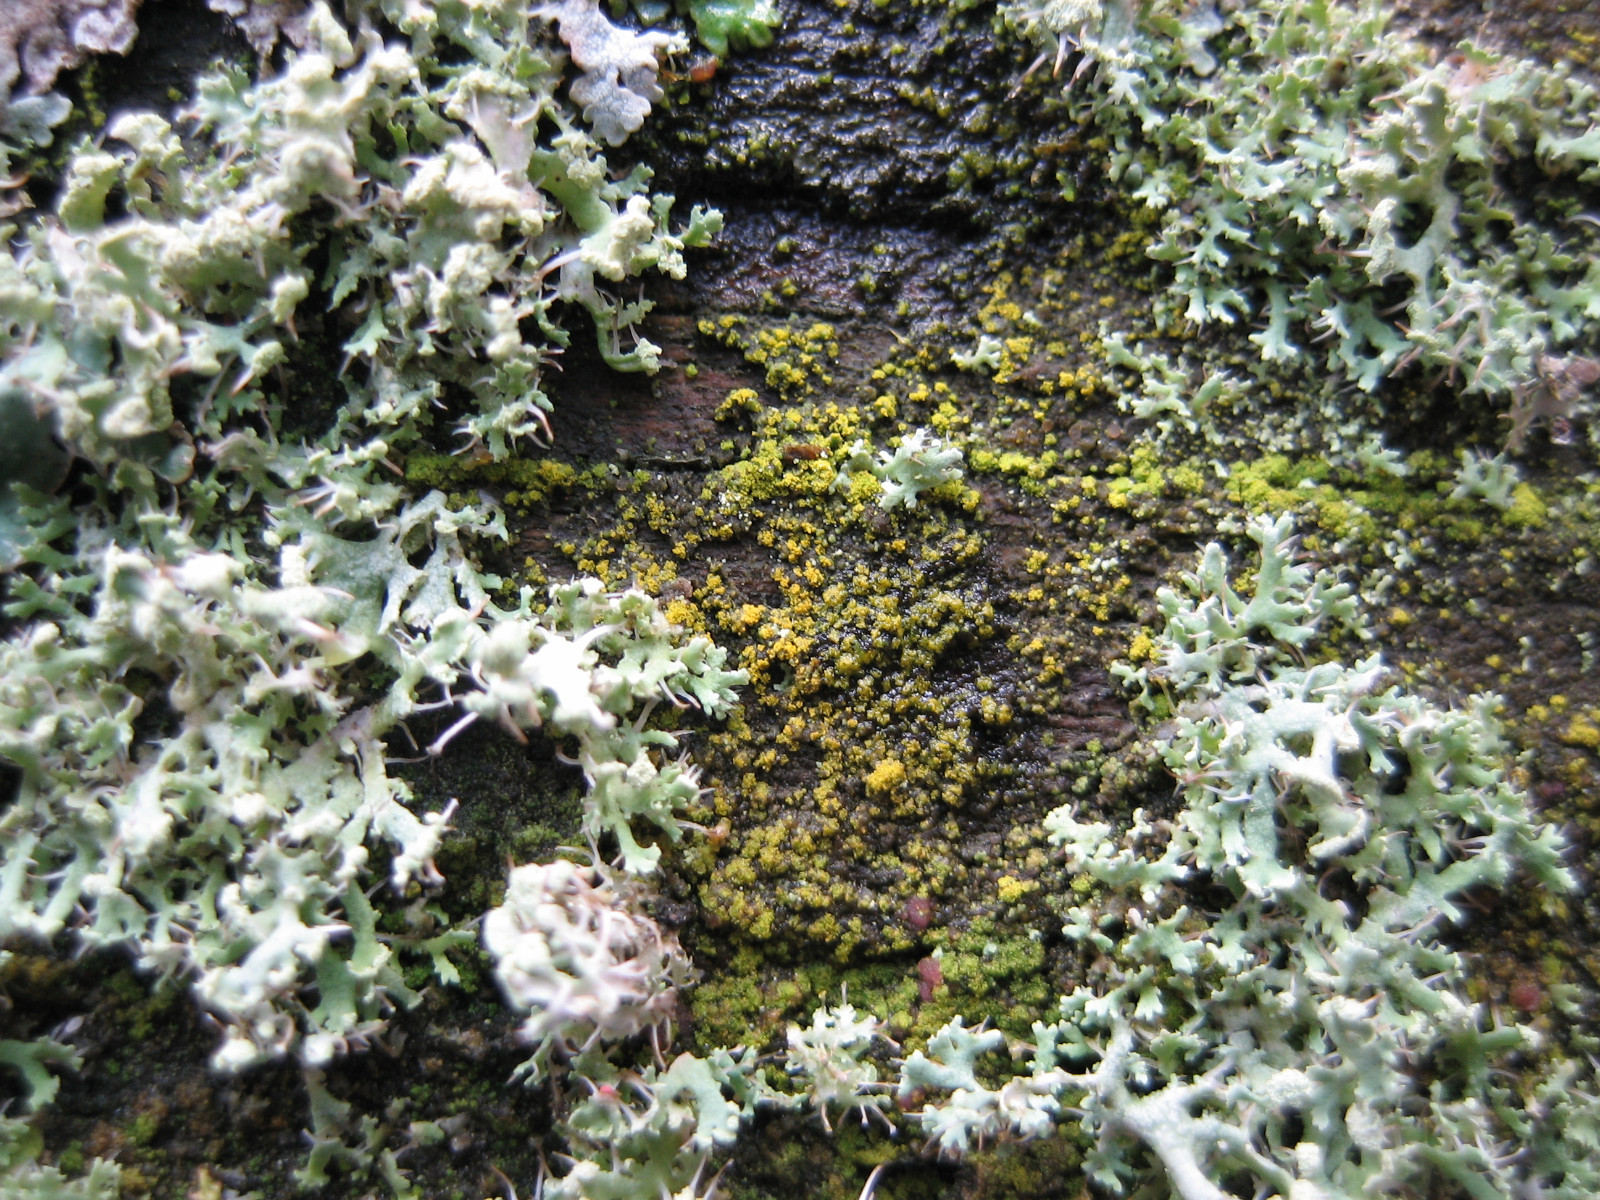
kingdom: Fungi
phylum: Ascomycota
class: Candelariomycetes
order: Candelariales
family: Candelariaceae
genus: Candelariella
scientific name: Candelariella reflexa
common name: grynskællet æggeblommelav
